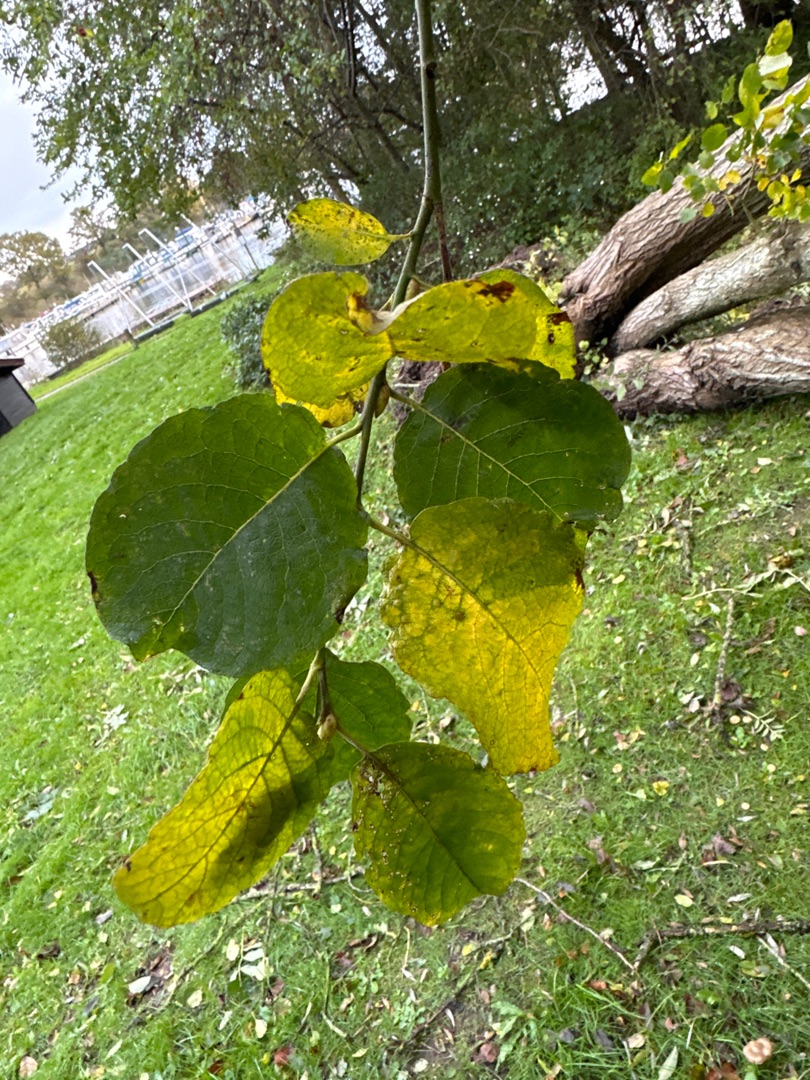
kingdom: Plantae
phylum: Tracheophyta
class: Magnoliopsida
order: Malpighiales
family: Salicaceae
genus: Salix
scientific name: Salix caprea
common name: Selje-pil
